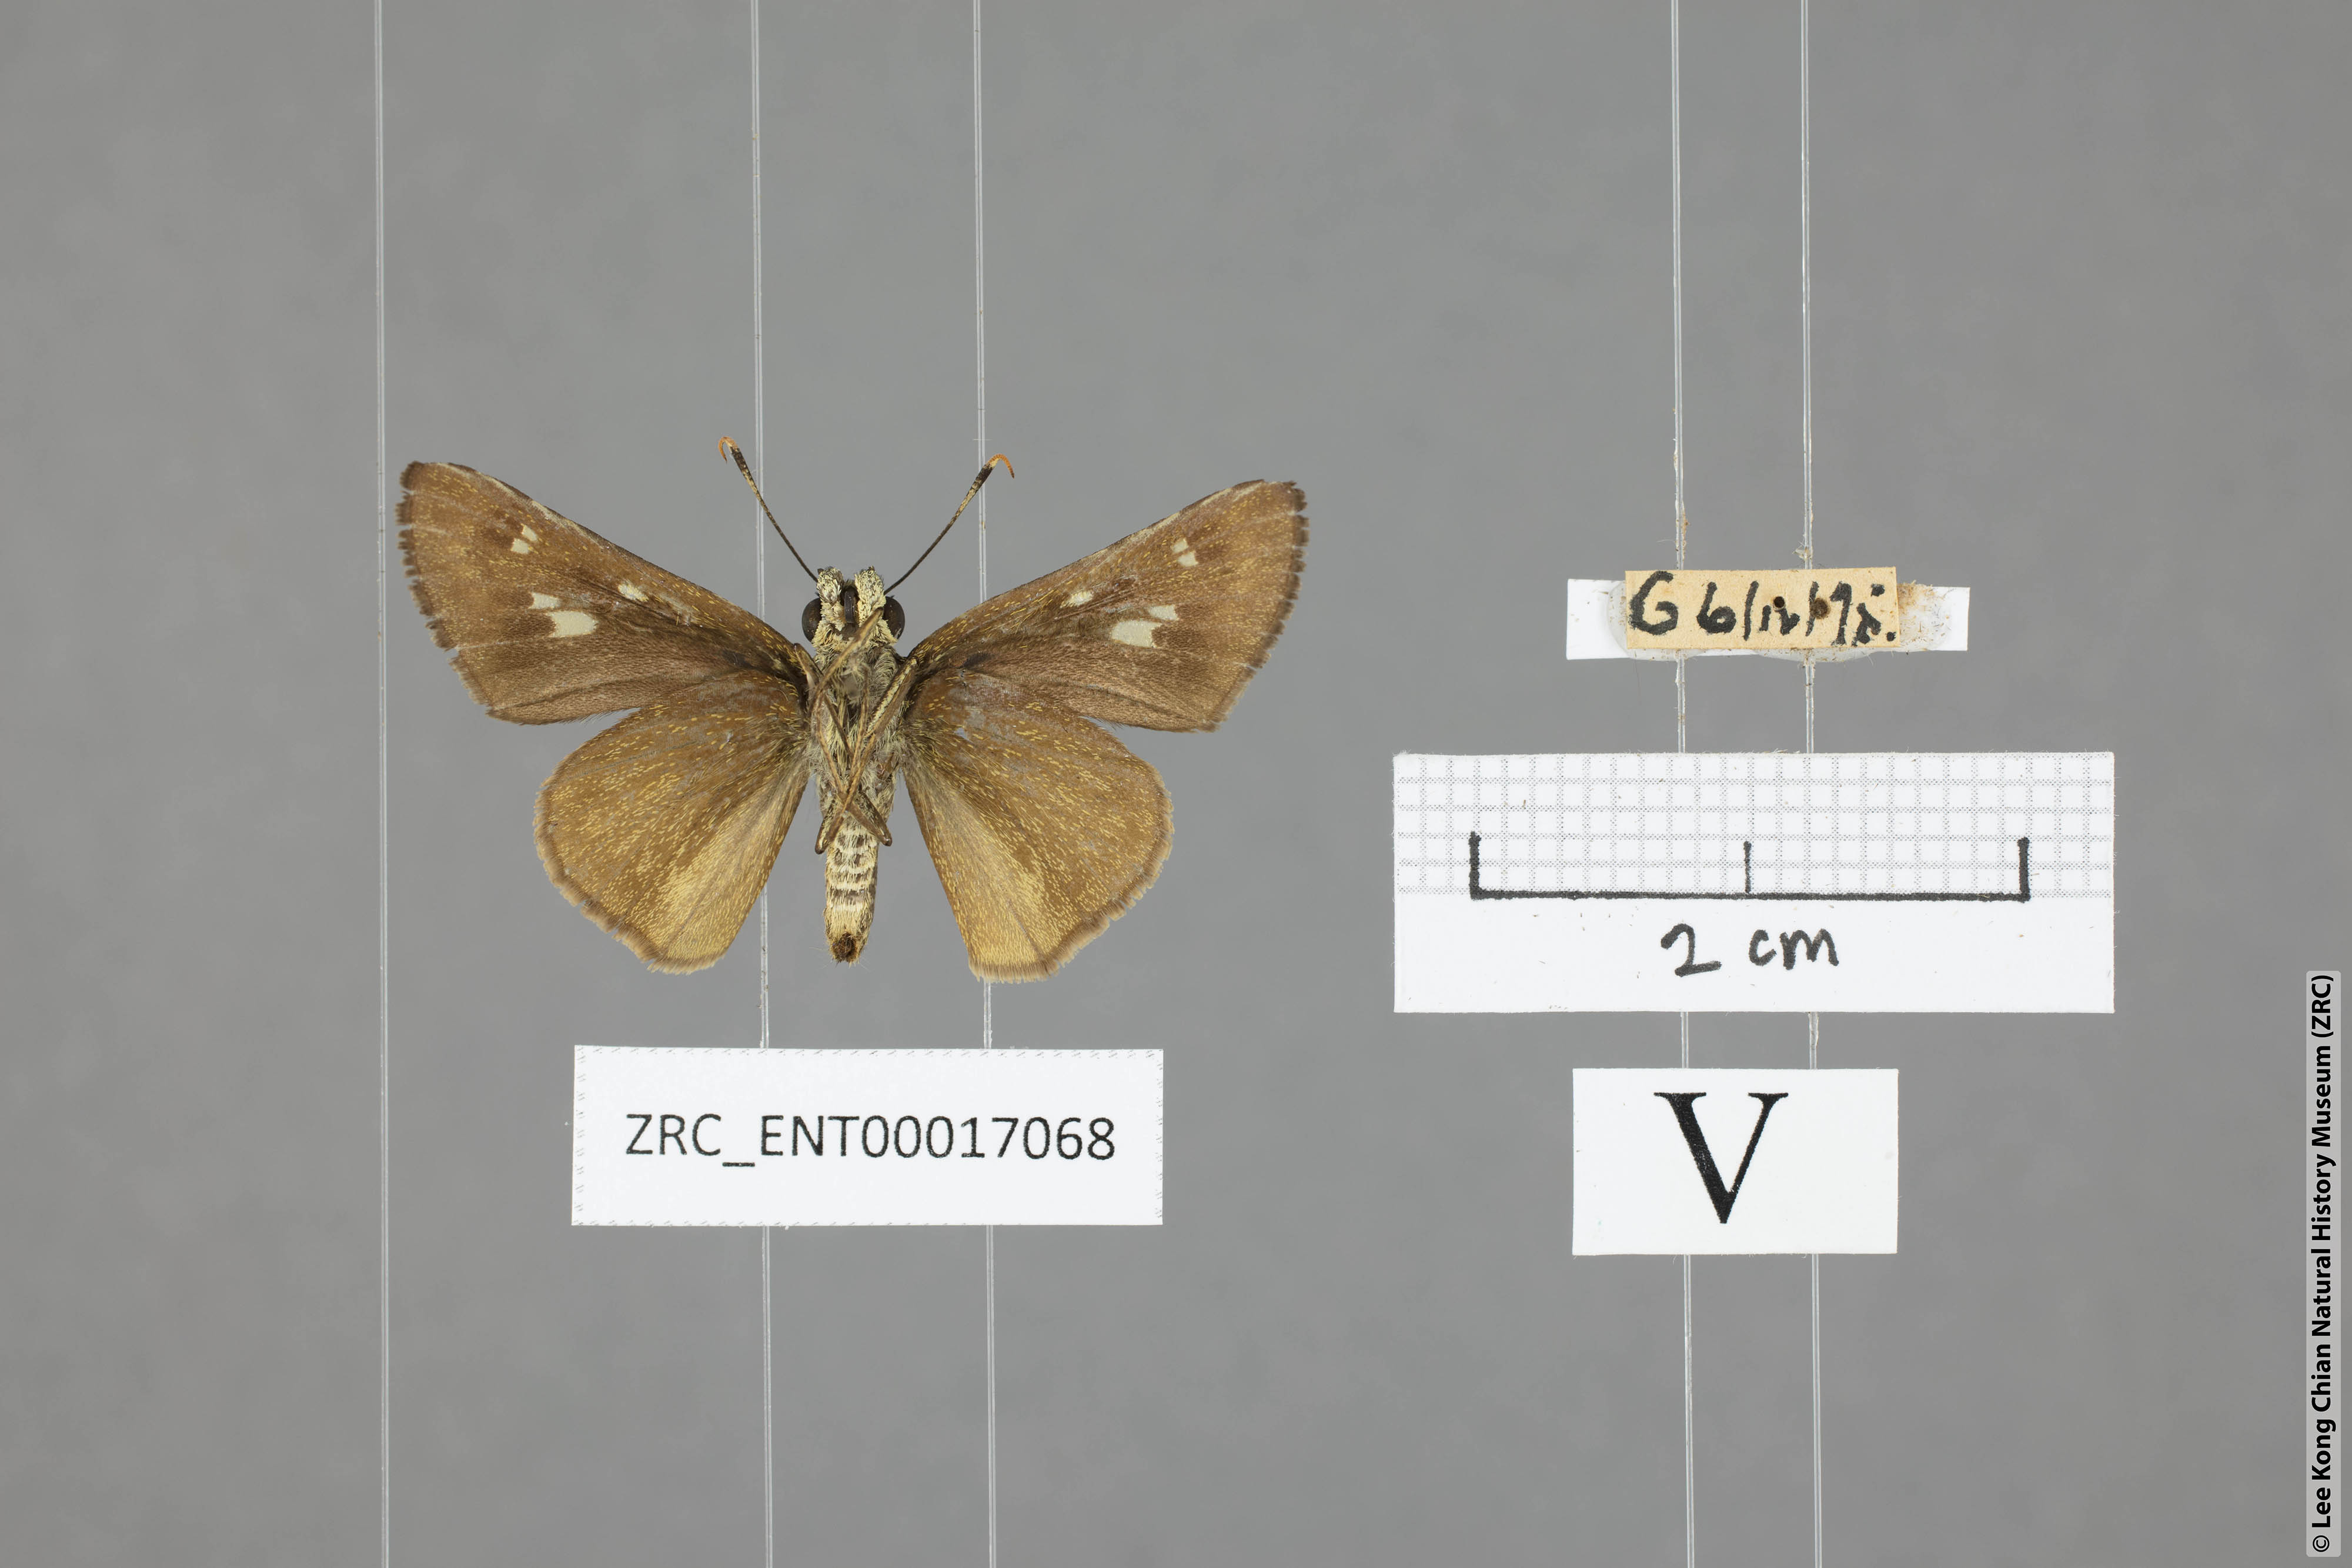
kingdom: Animalia
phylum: Arthropoda
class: Insecta
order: Lepidoptera
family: Hesperiidae
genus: Halpe
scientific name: Halpe sikkima
